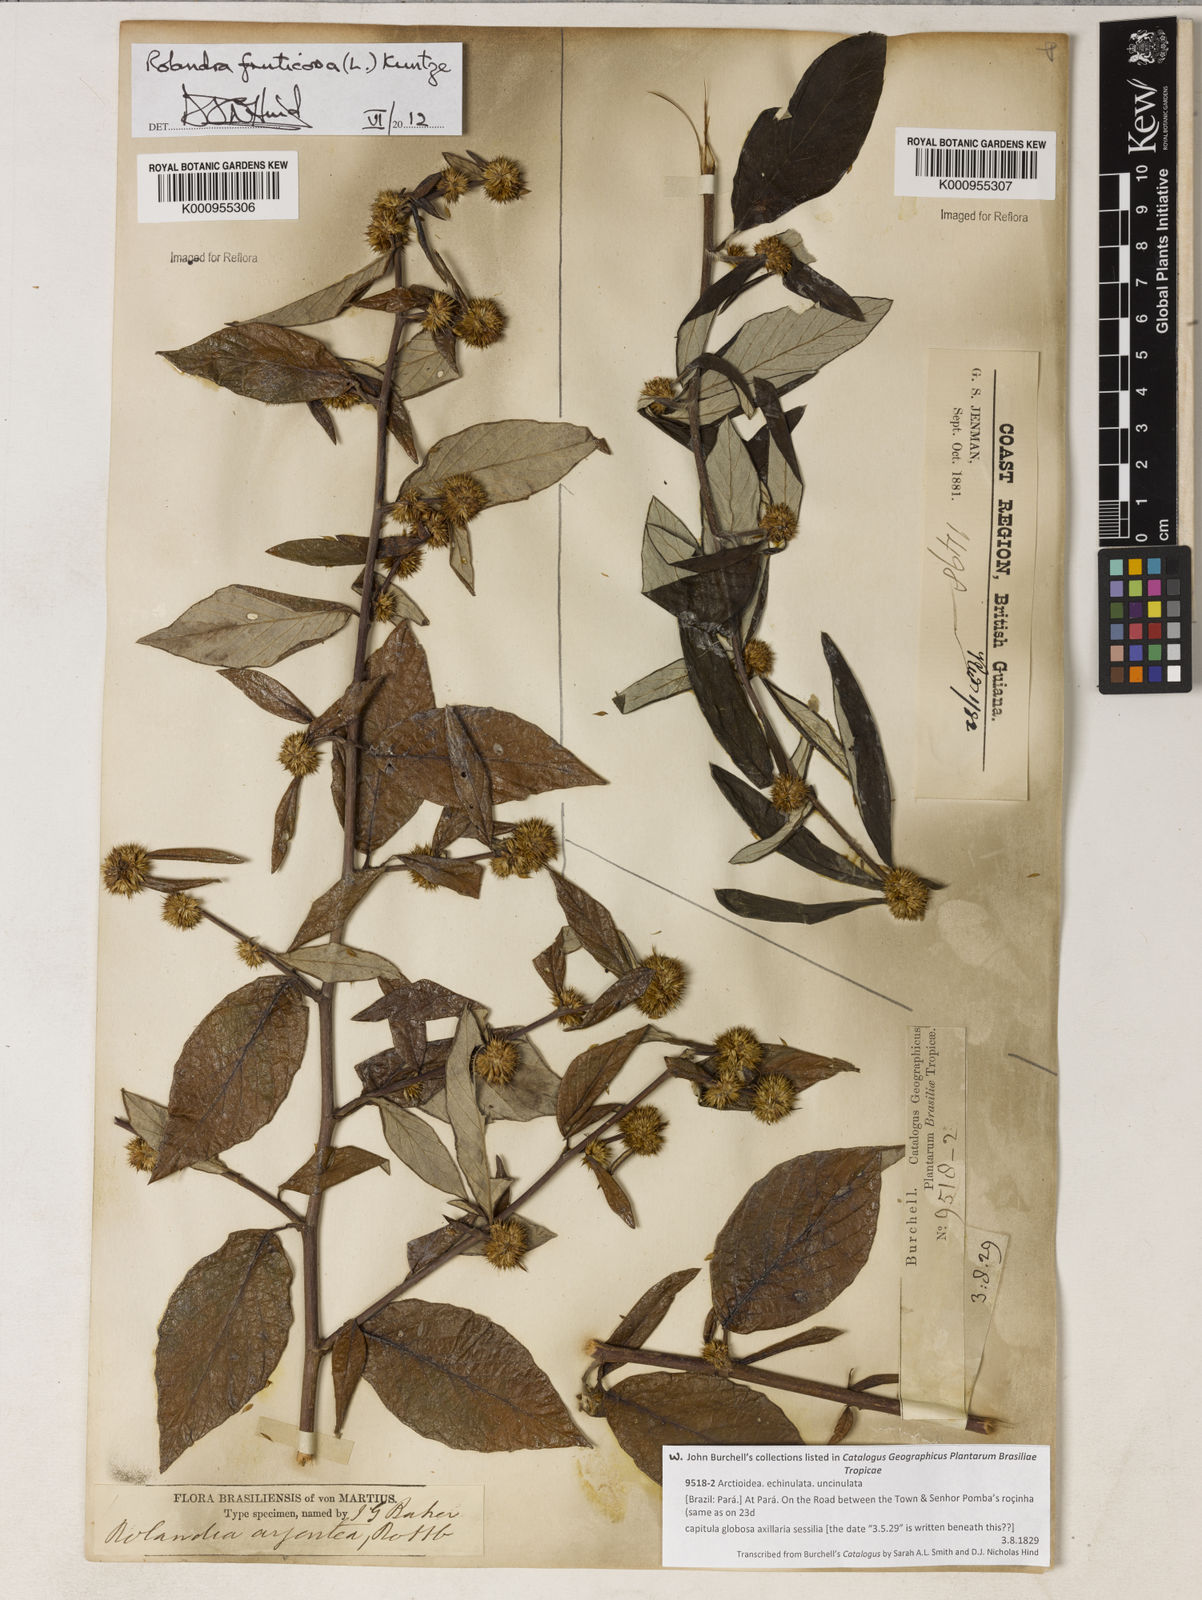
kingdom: Plantae
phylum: Tracheophyta
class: Magnoliopsida
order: Asterales
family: Asteraceae
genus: Rolandra
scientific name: Rolandra fruticosa
